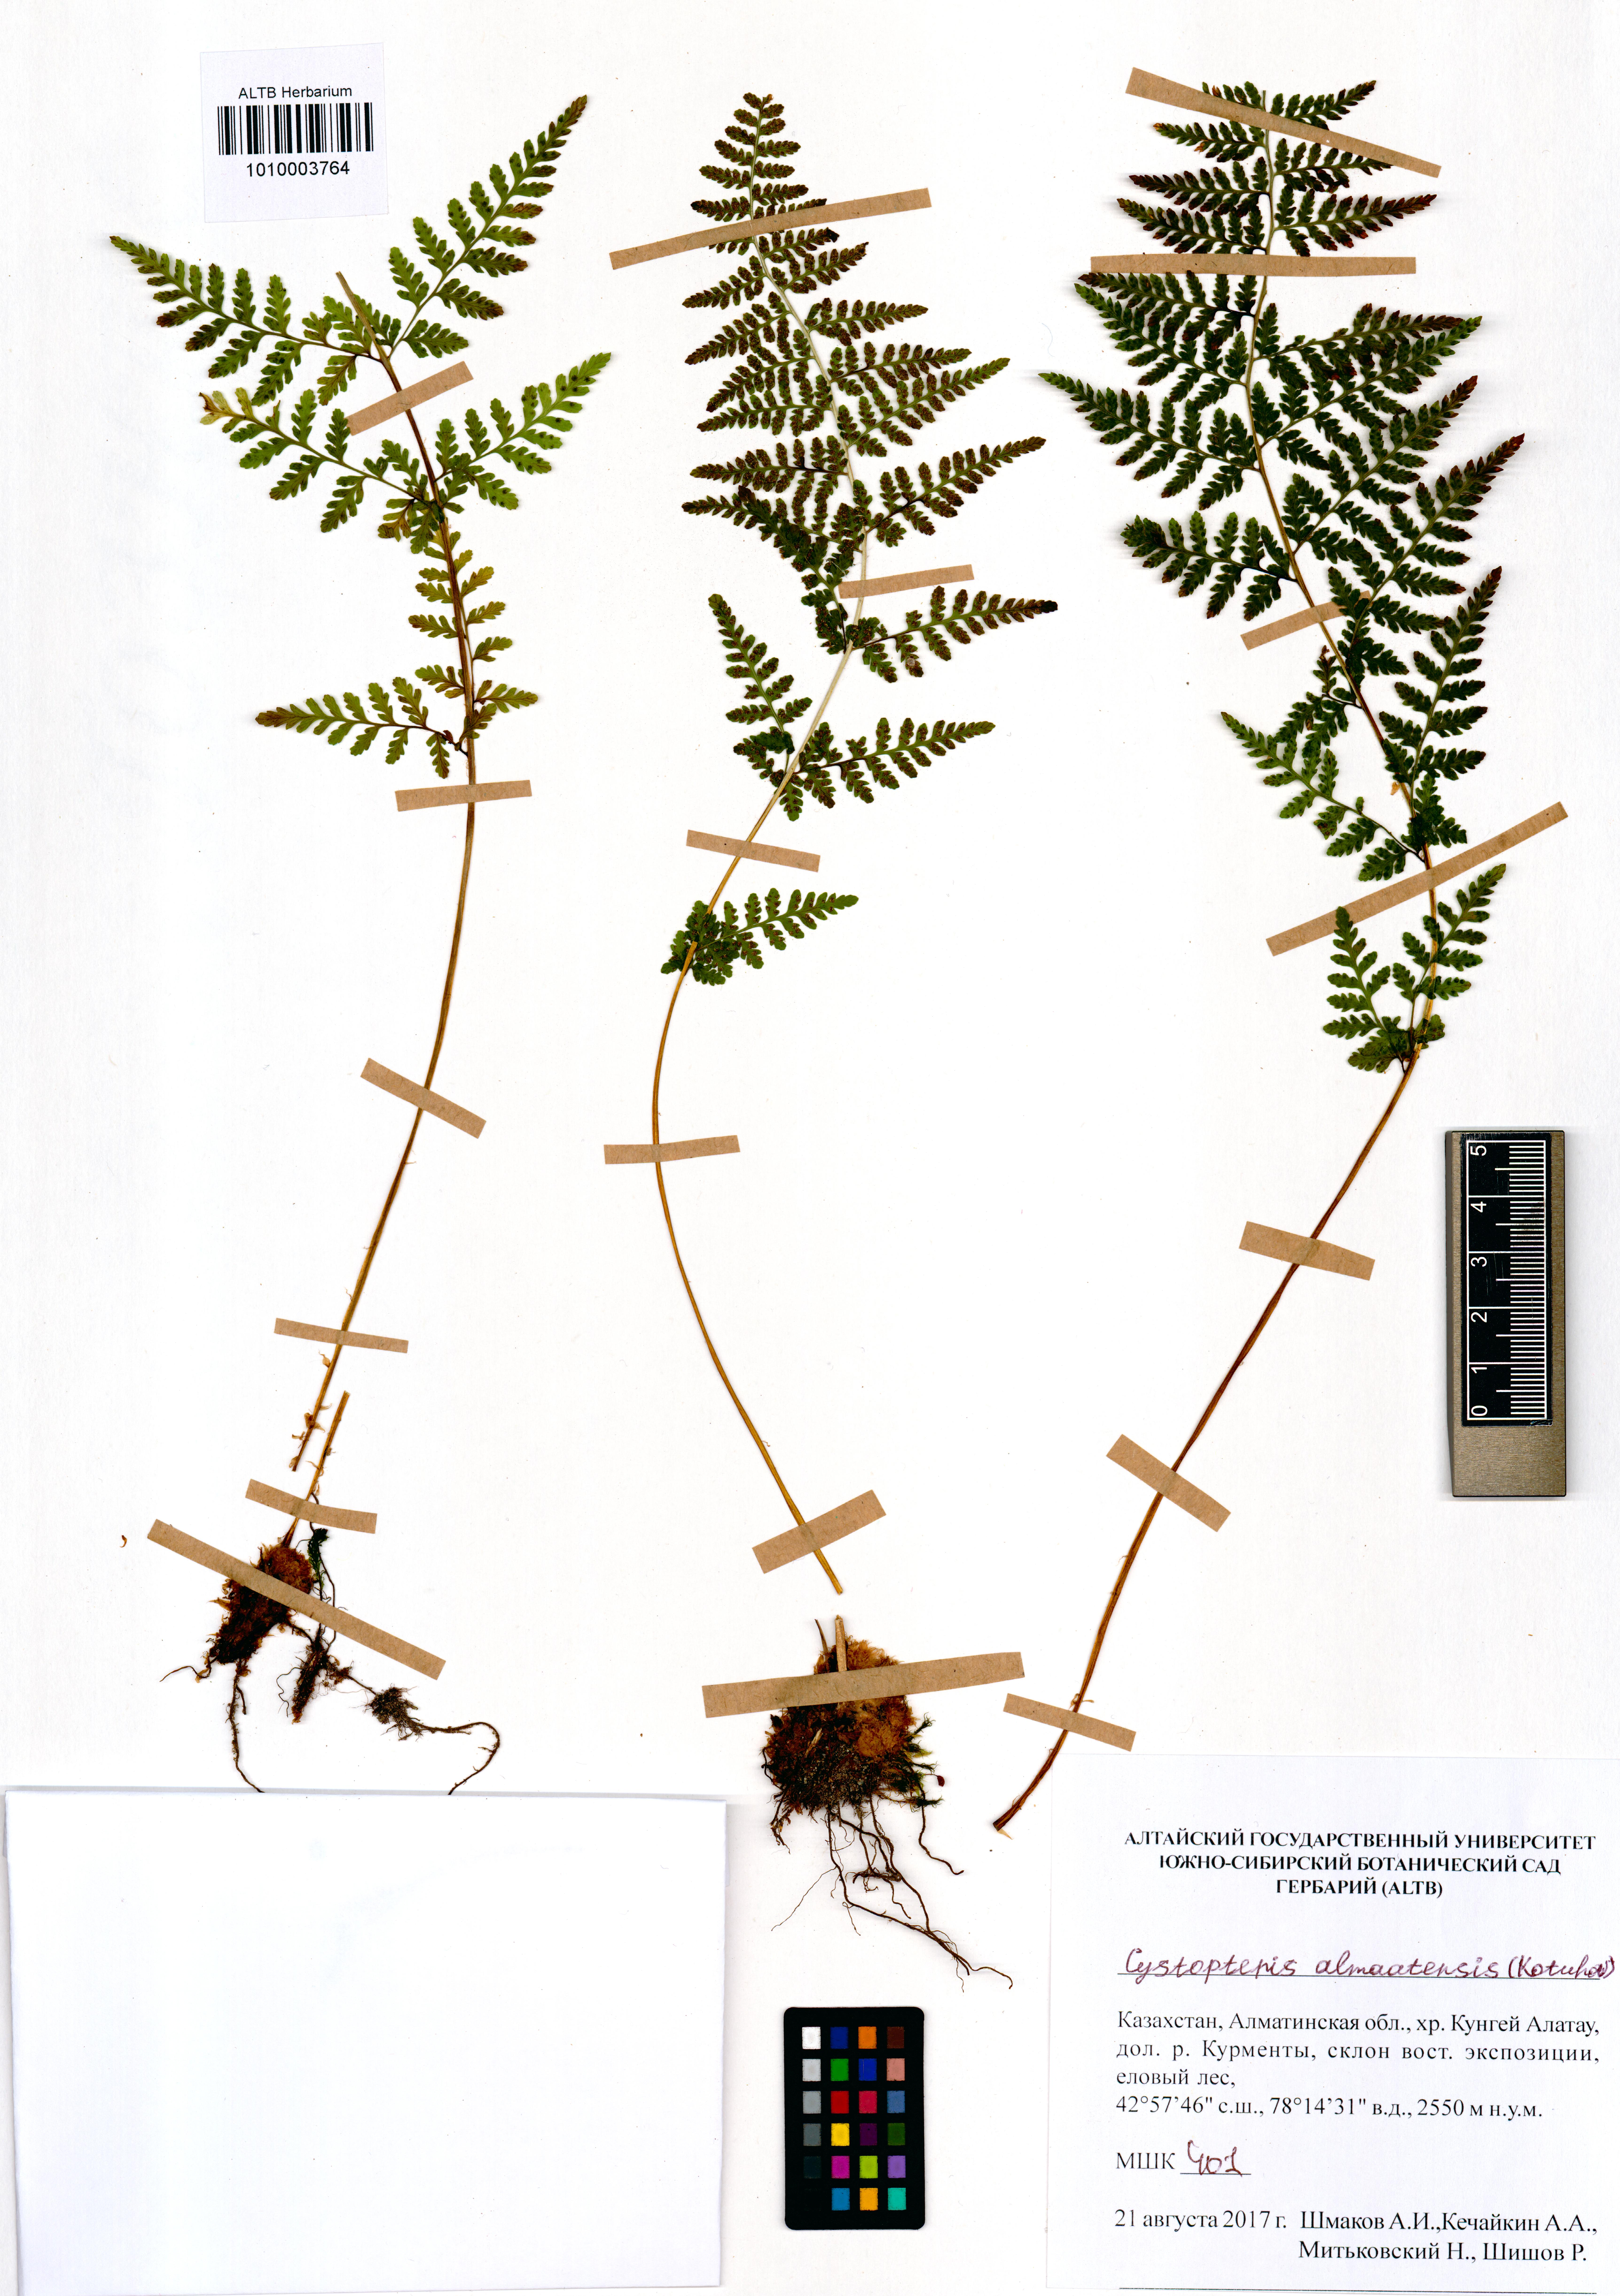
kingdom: Plantae
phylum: Tracheophyta
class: Polypodiopsida
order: Polypodiales
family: Cystopteridaceae
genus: Cystopteris
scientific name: Cystopteris dickieana
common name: Dickie's bladder-fern
